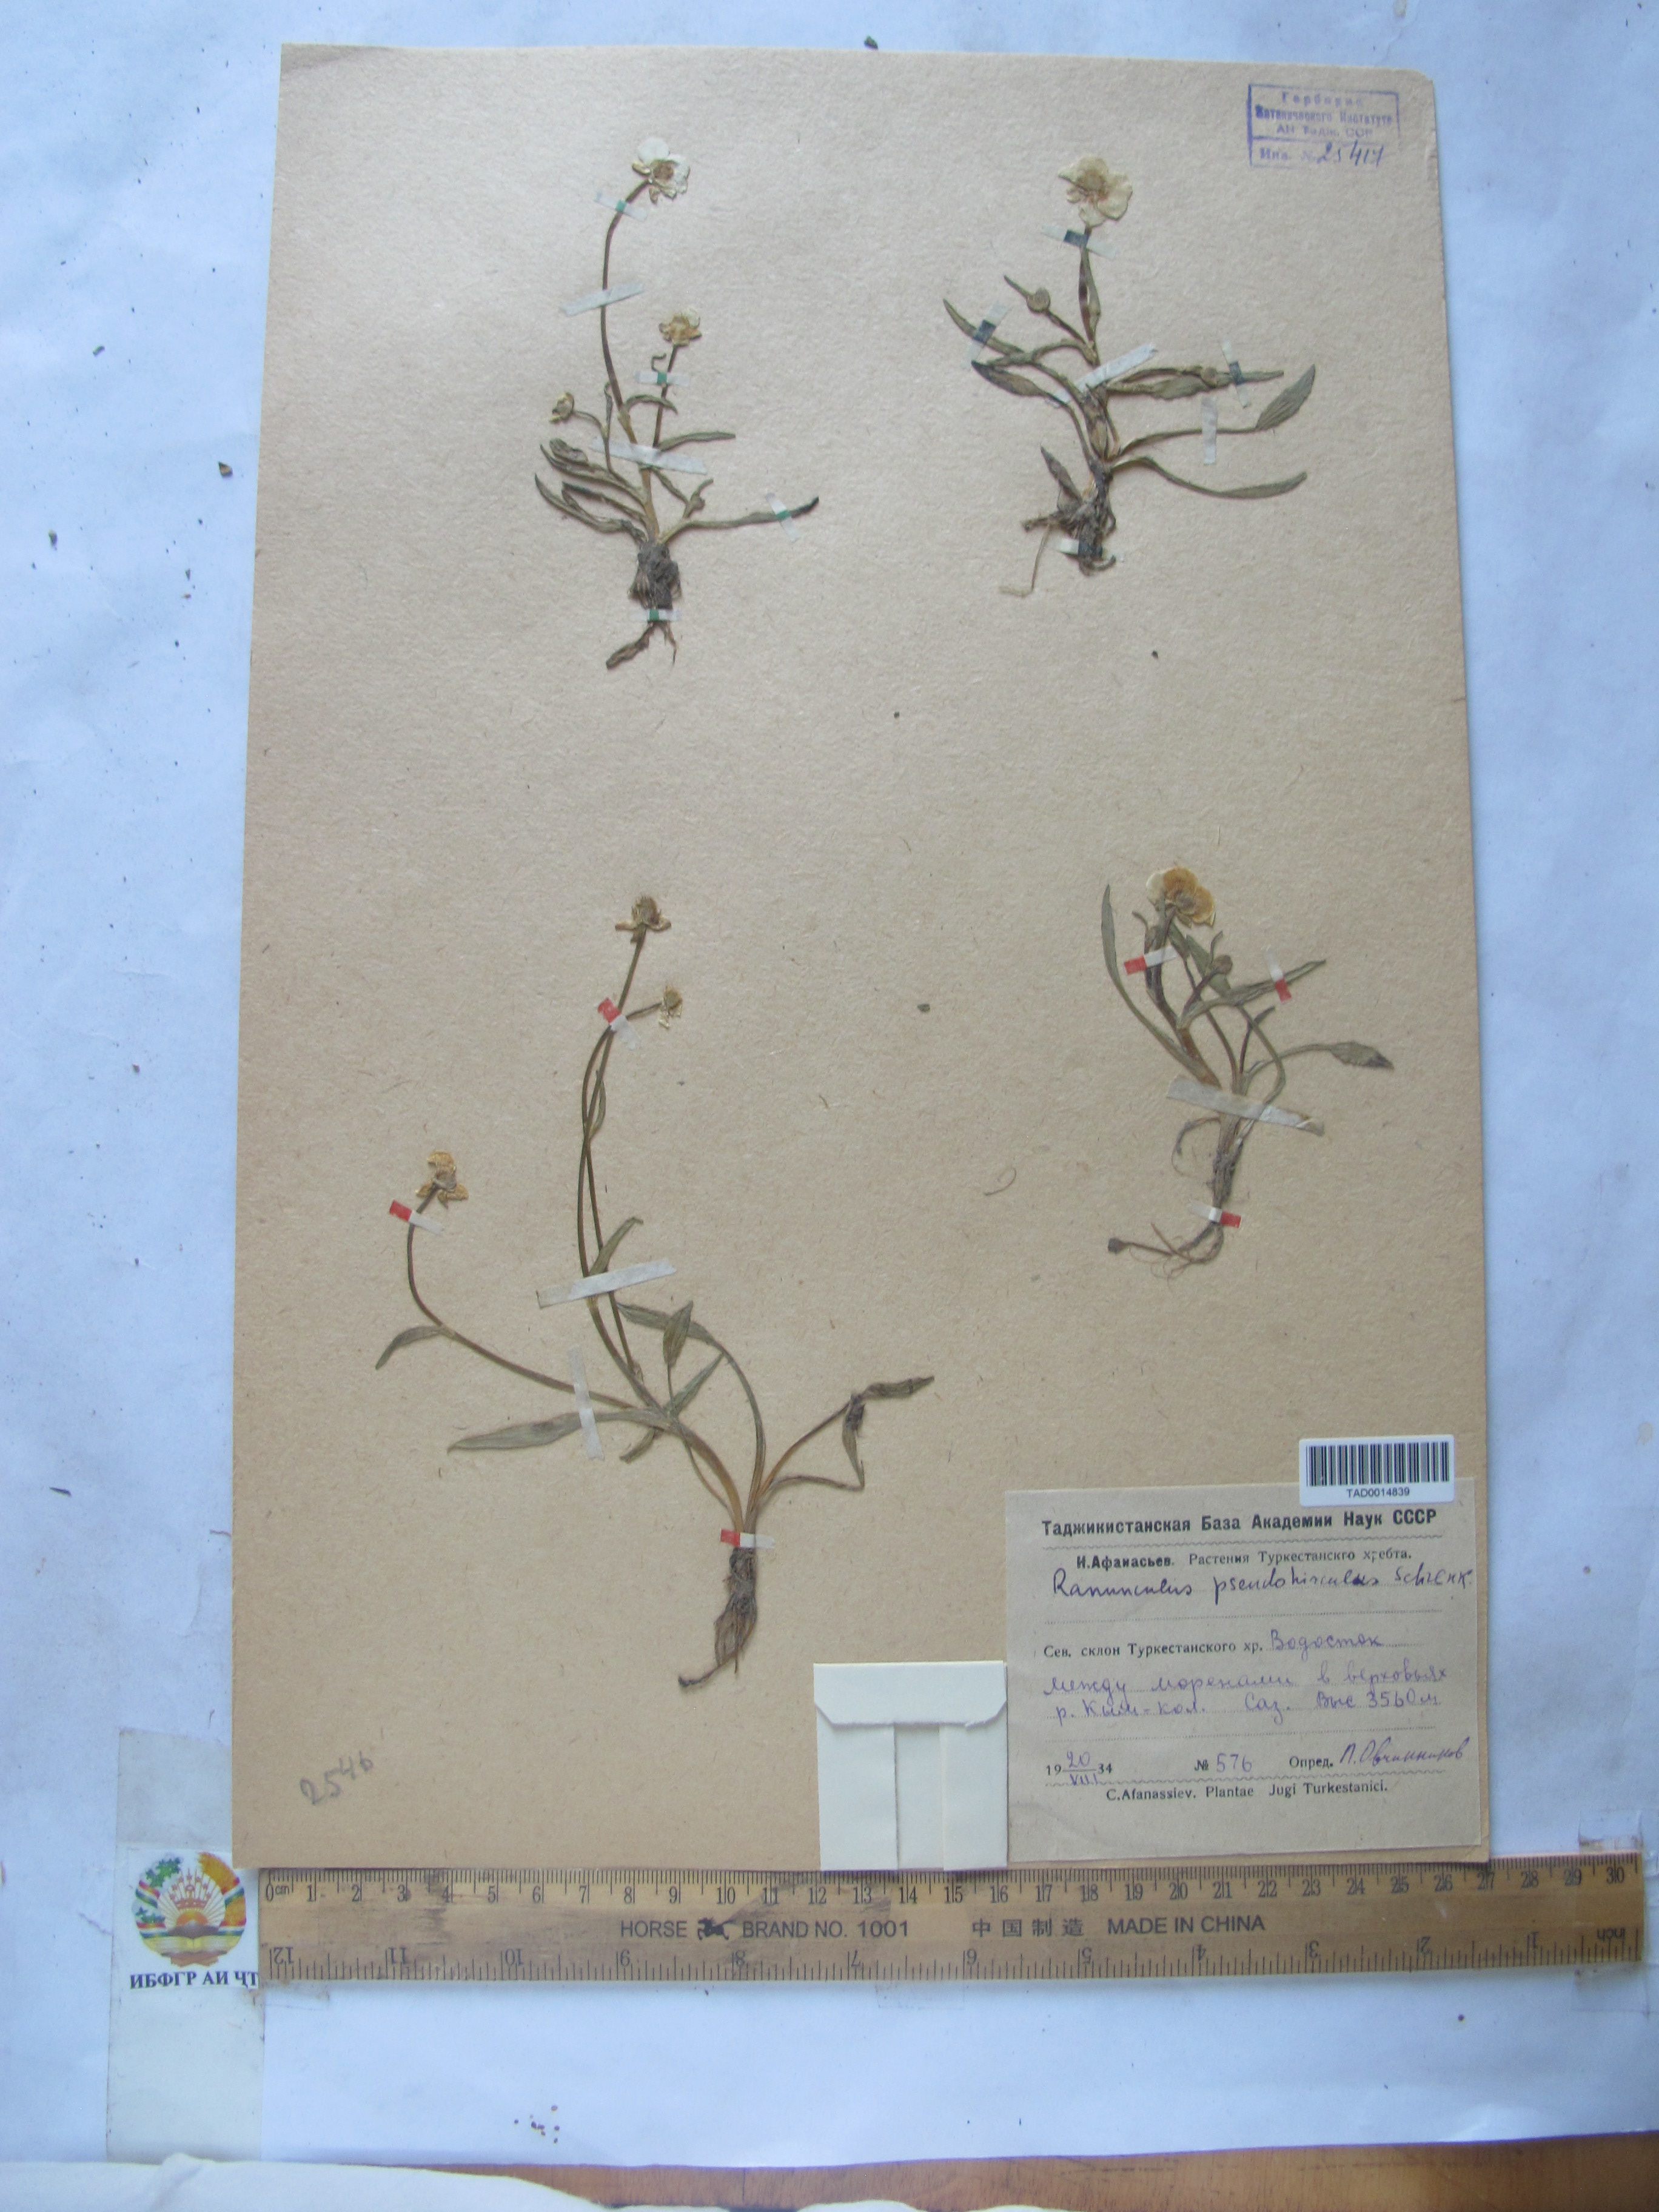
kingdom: Plantae
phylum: Tracheophyta
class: Magnoliopsida
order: Ranunculales
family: Ranunculaceae
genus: Ranunculus
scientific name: Ranunculus pseudohirculus
